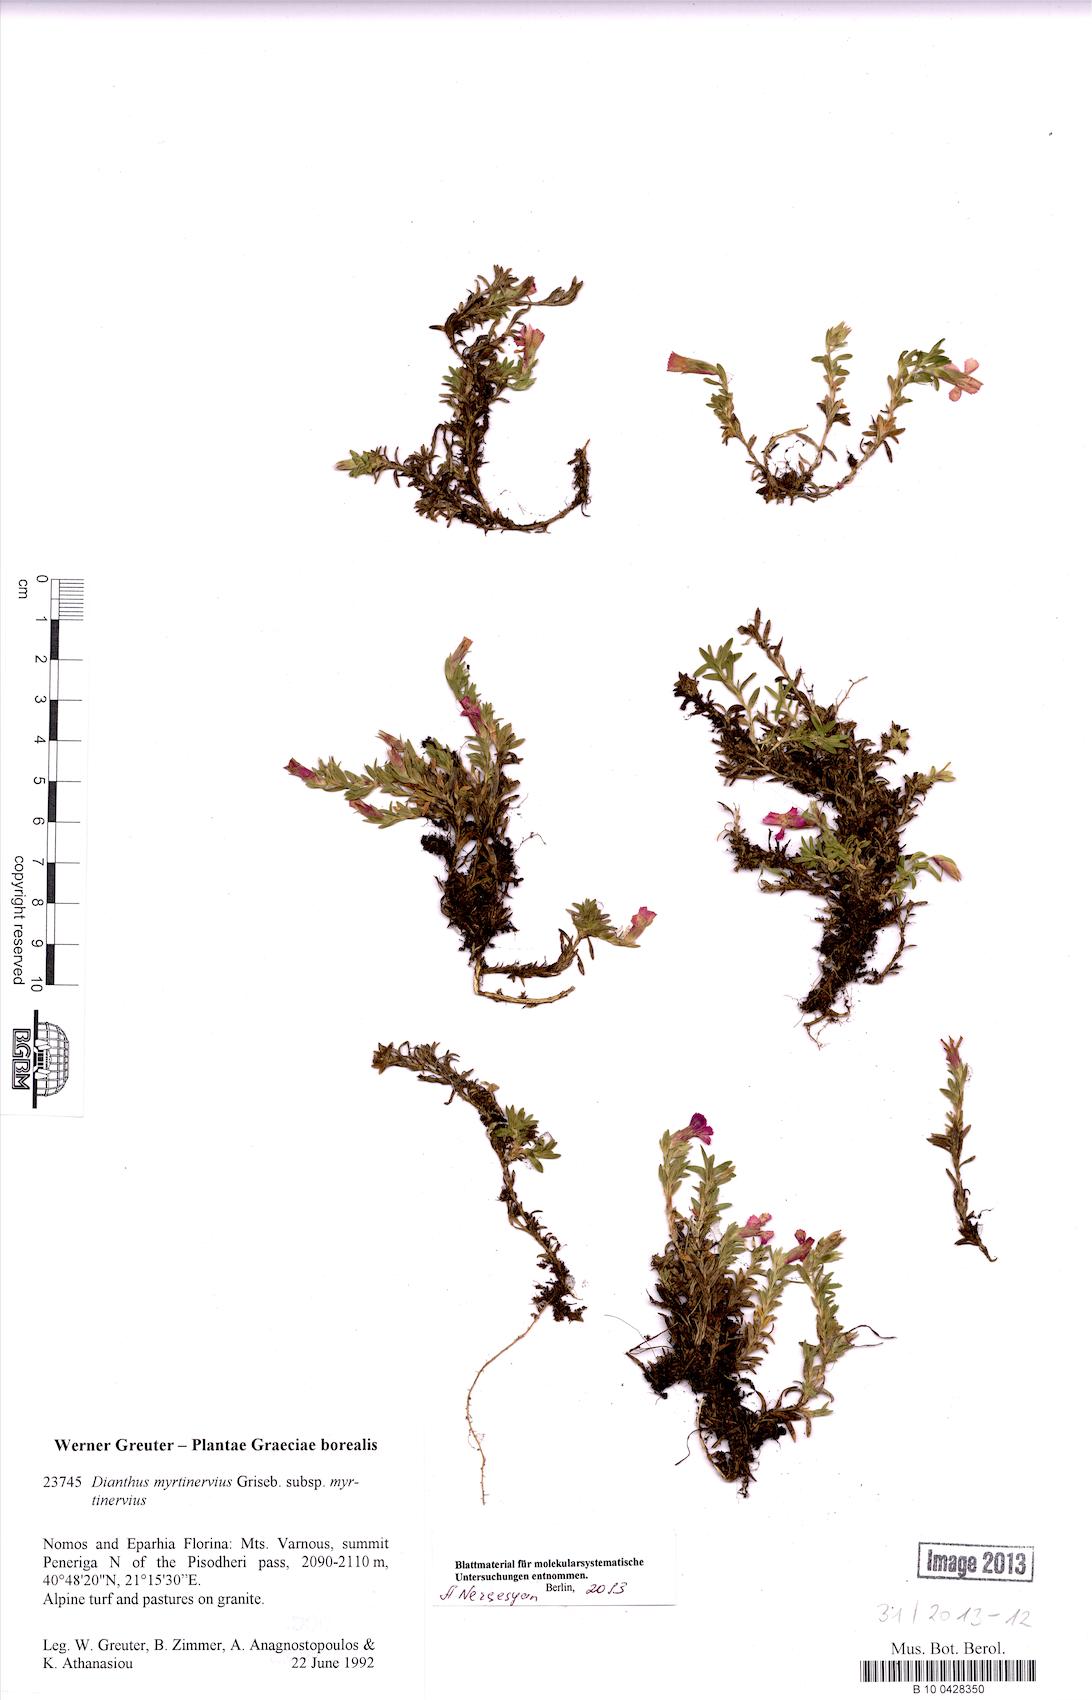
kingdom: Plantae
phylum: Tracheophyta
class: Magnoliopsida
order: Caryophyllales
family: Caryophyllaceae
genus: Dianthus
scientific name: Dianthus myrtinervius
